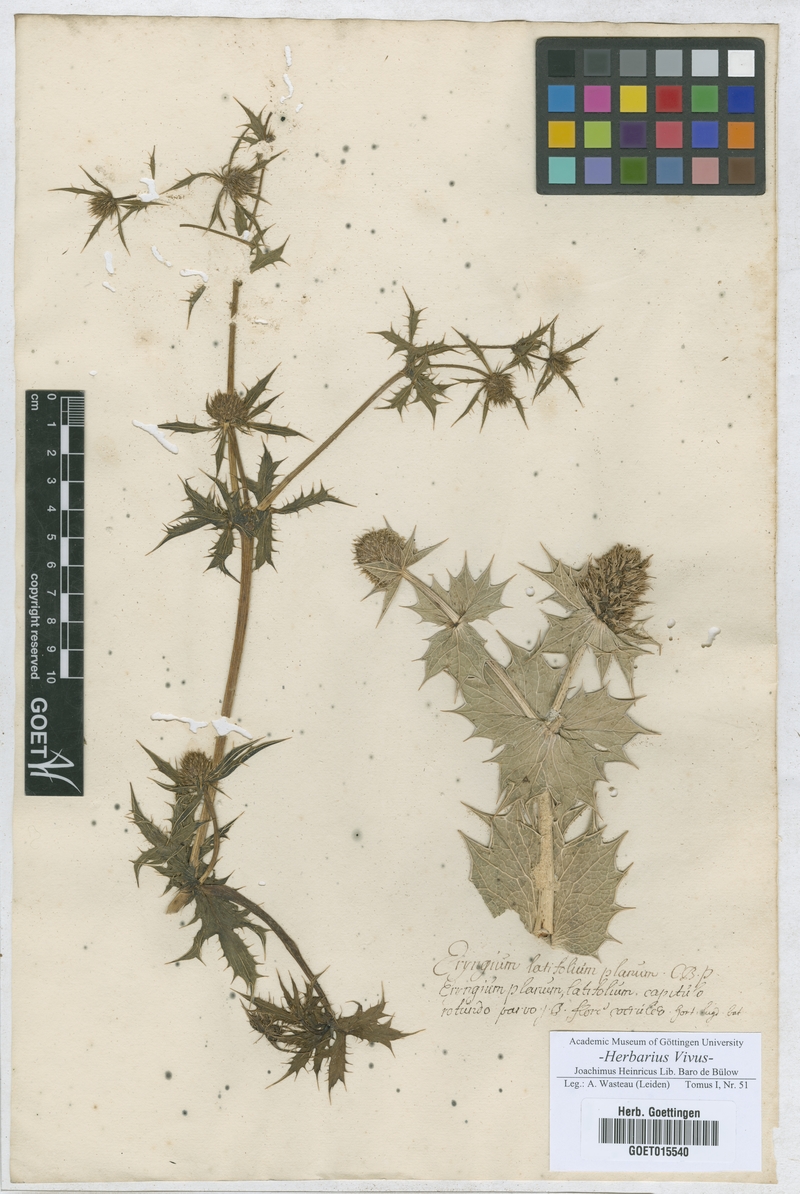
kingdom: Plantae
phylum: Tracheophyta
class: Magnoliopsida
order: Apiales
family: Apiaceae
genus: Eryngium
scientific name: Eryngium planum
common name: Blue eryngo
